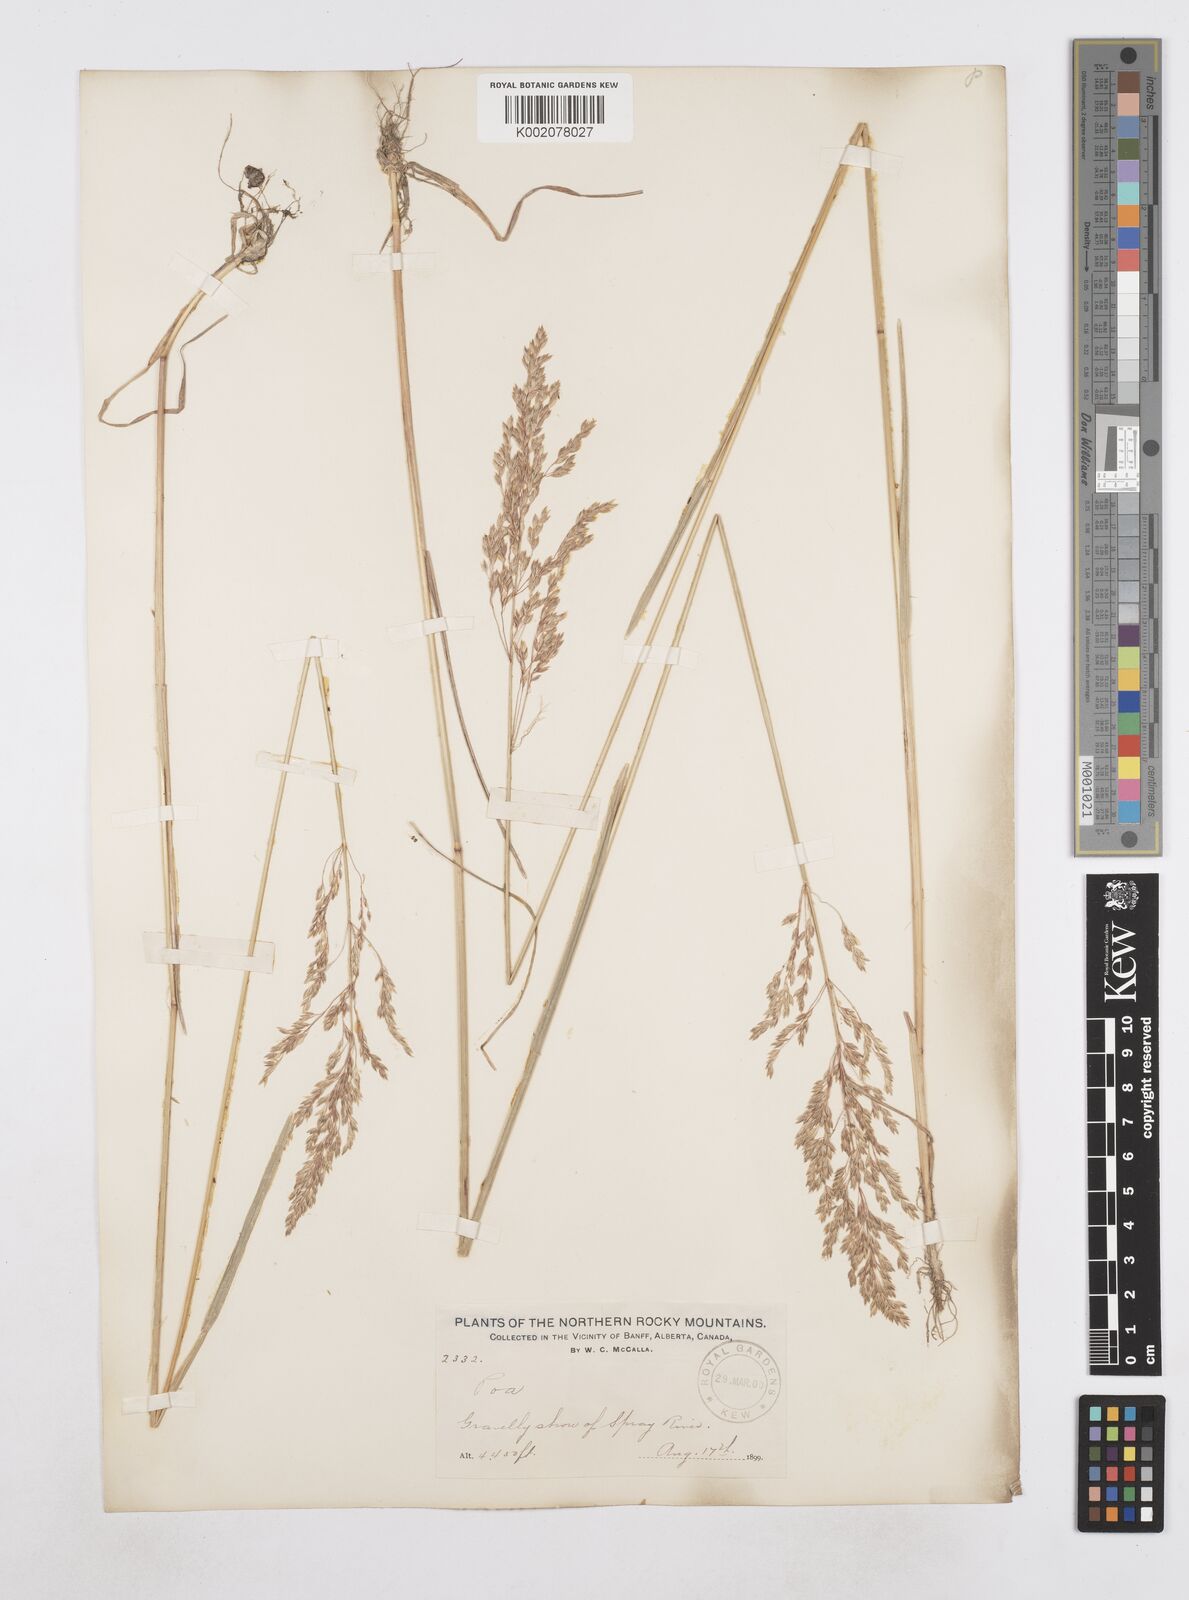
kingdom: Plantae
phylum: Tracheophyta
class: Liliopsida
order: Poales
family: Poaceae
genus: Poa
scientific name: Poa
